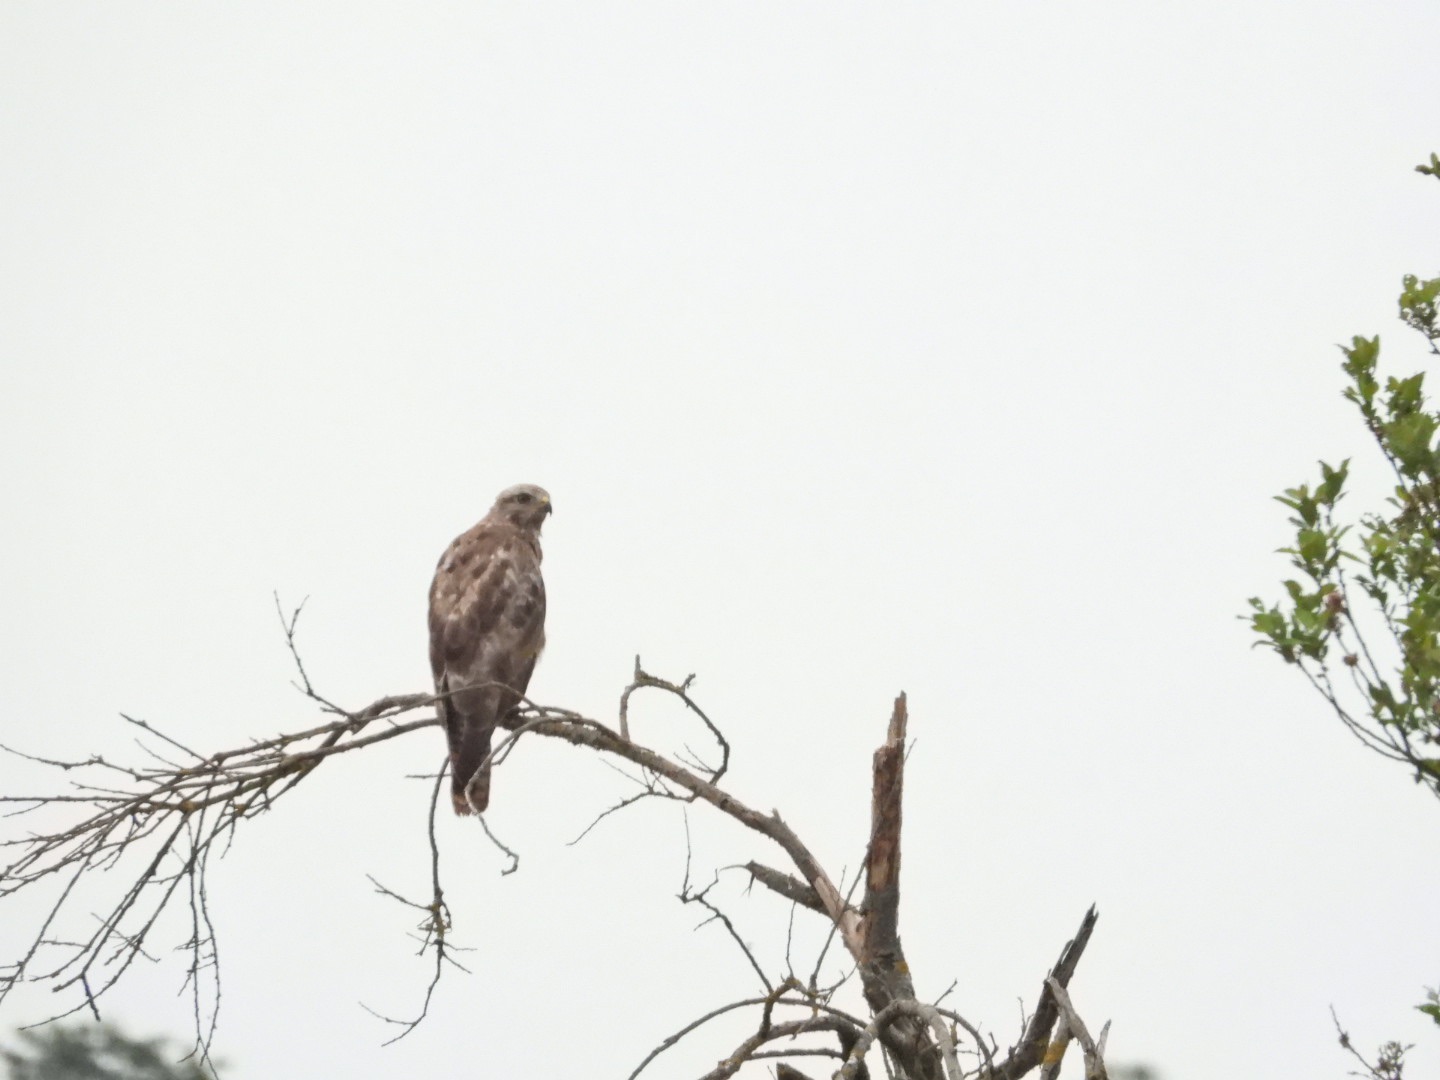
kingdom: Animalia
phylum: Chordata
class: Aves
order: Accipitriformes
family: Accipitridae
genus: Buteo
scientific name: Buteo buteo
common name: Musvåge
